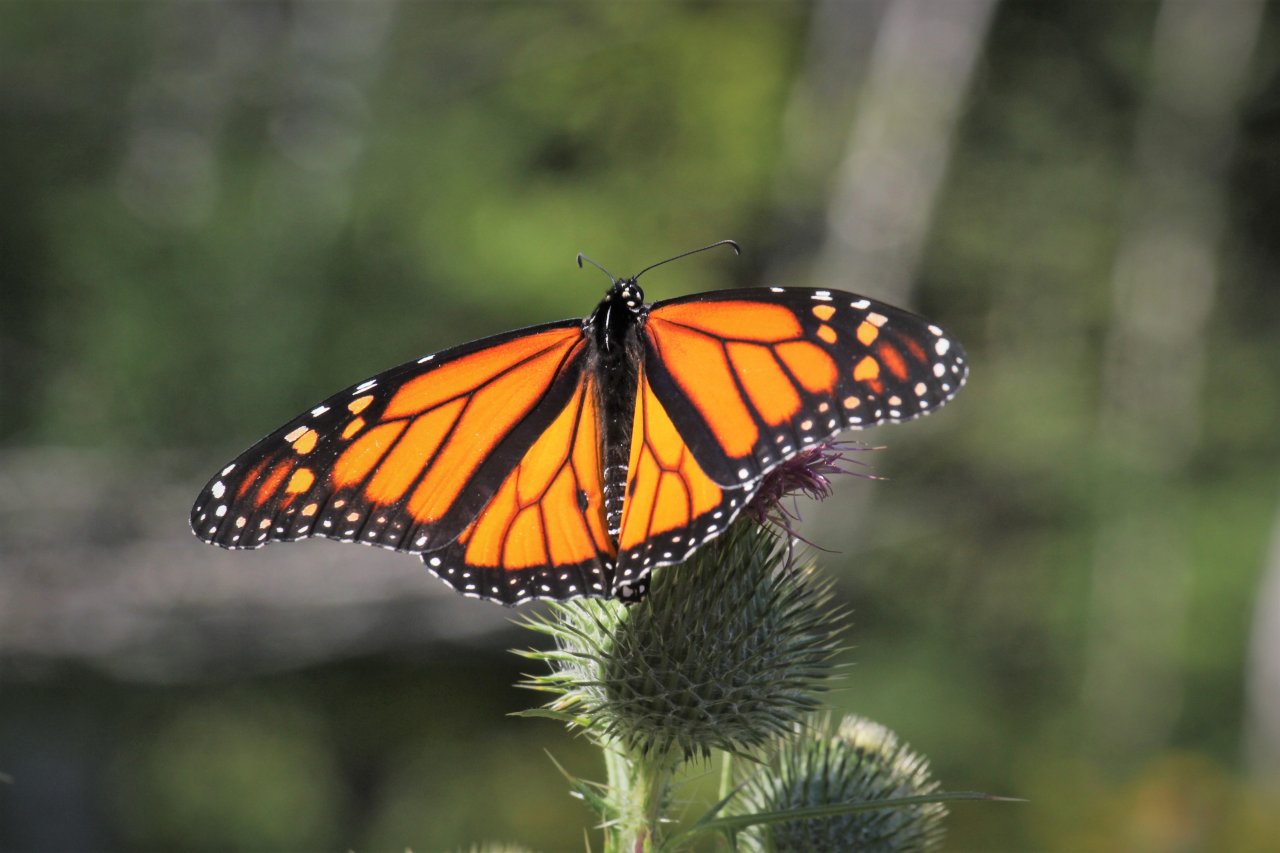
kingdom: Animalia
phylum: Arthropoda
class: Insecta
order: Lepidoptera
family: Nymphalidae
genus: Danaus
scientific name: Danaus plexippus
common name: Monarch
